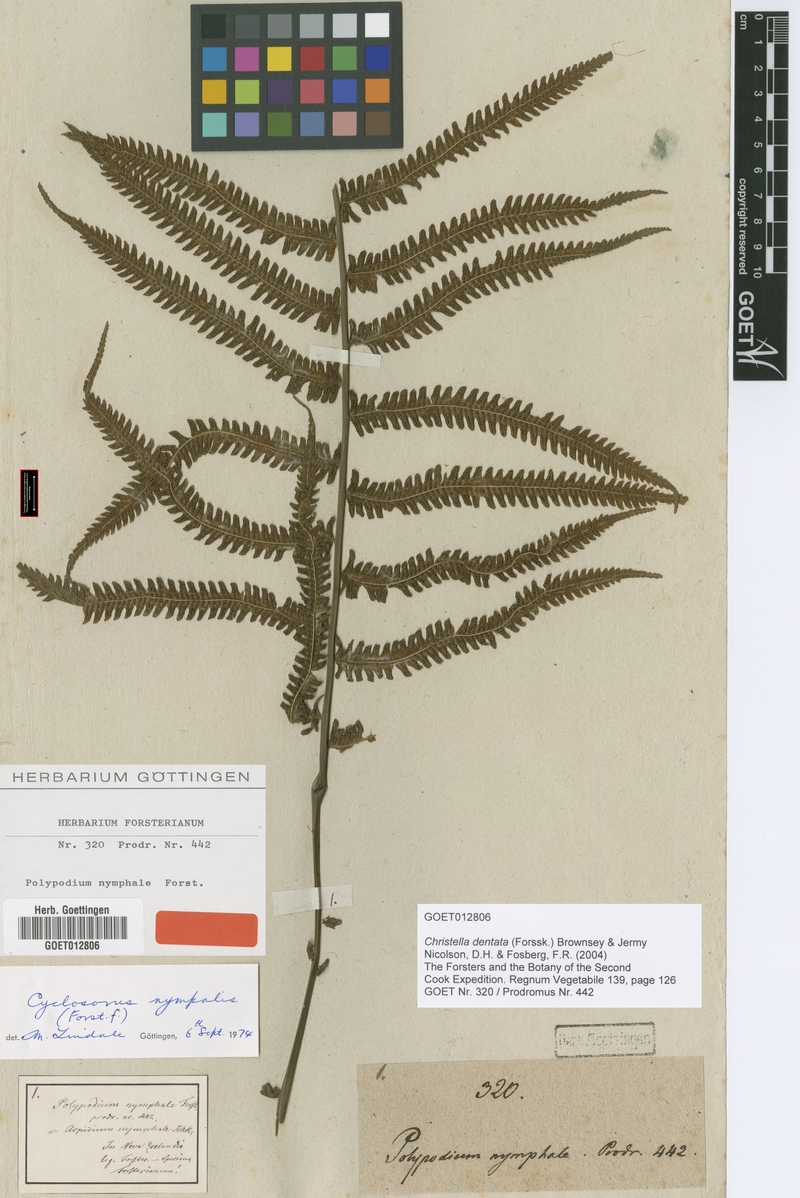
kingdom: Plantae
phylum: Tracheophyta
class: Polypodiopsida
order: Polypodiales
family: Thelypteridaceae
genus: Christella
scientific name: Christella dentata
